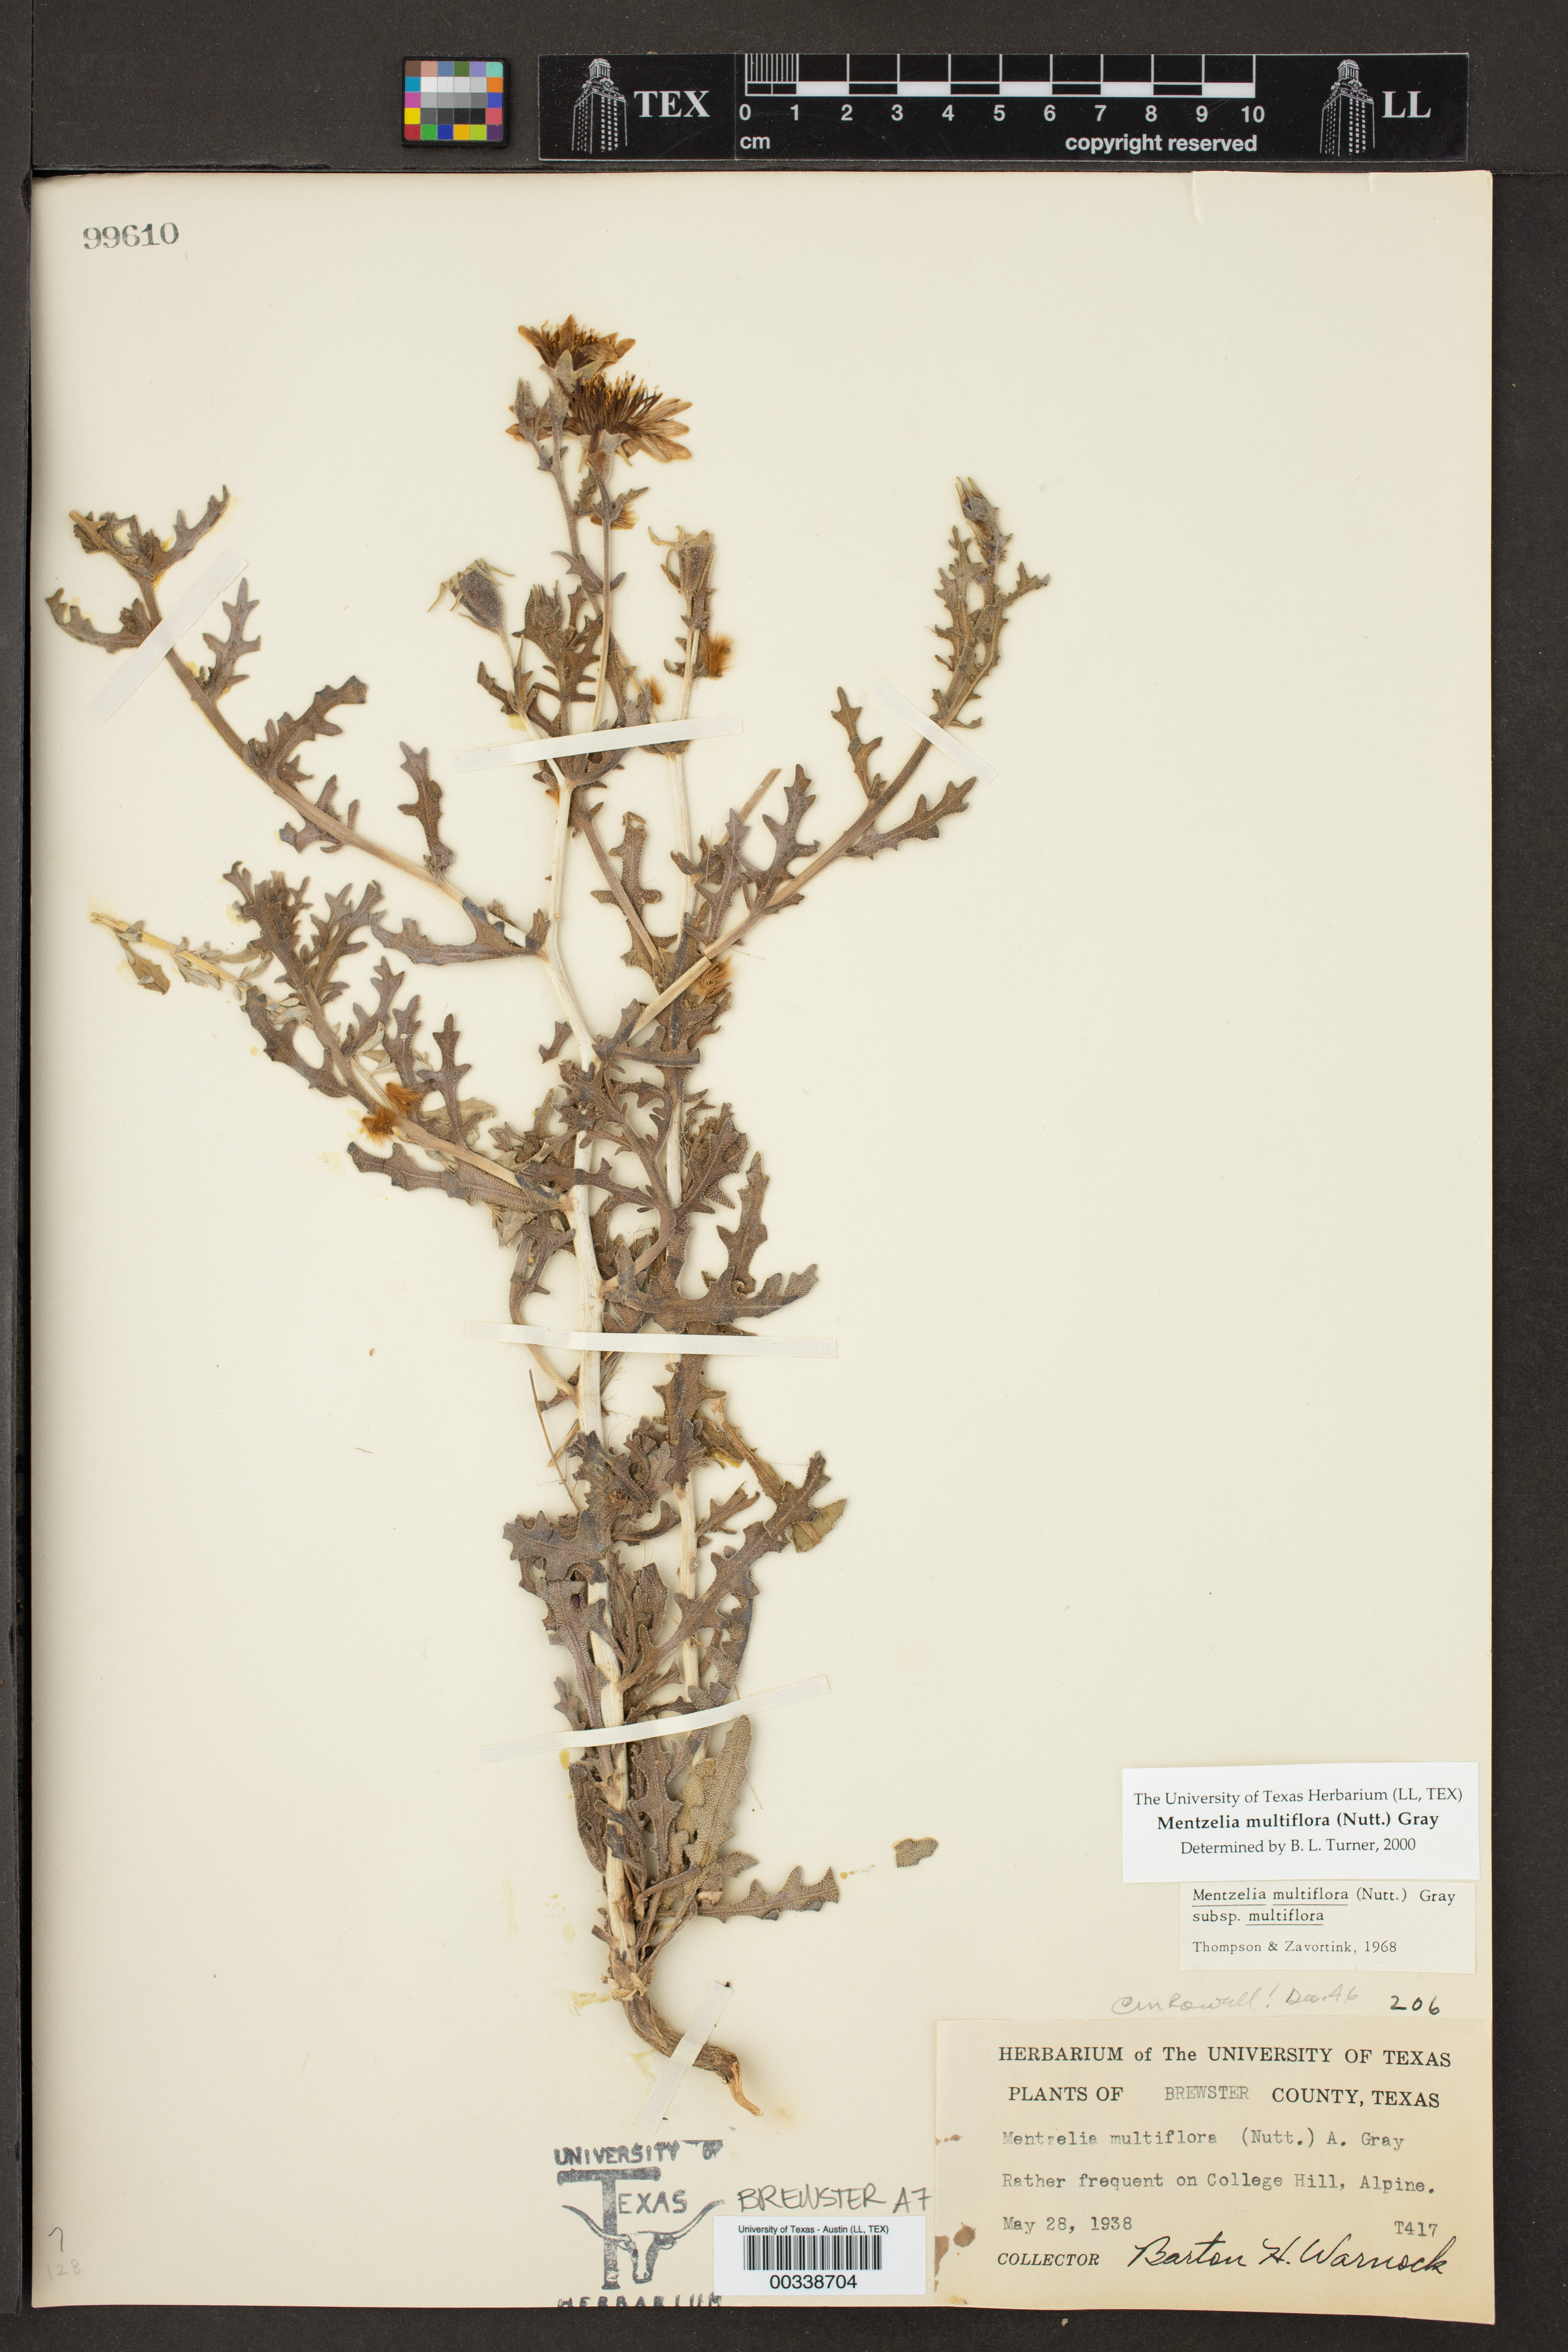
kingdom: Plantae
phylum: Tracheophyta
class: Magnoliopsida
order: Cornales
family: Loasaceae
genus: Mentzelia
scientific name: Mentzelia multiflora
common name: Adonis blazingstar
